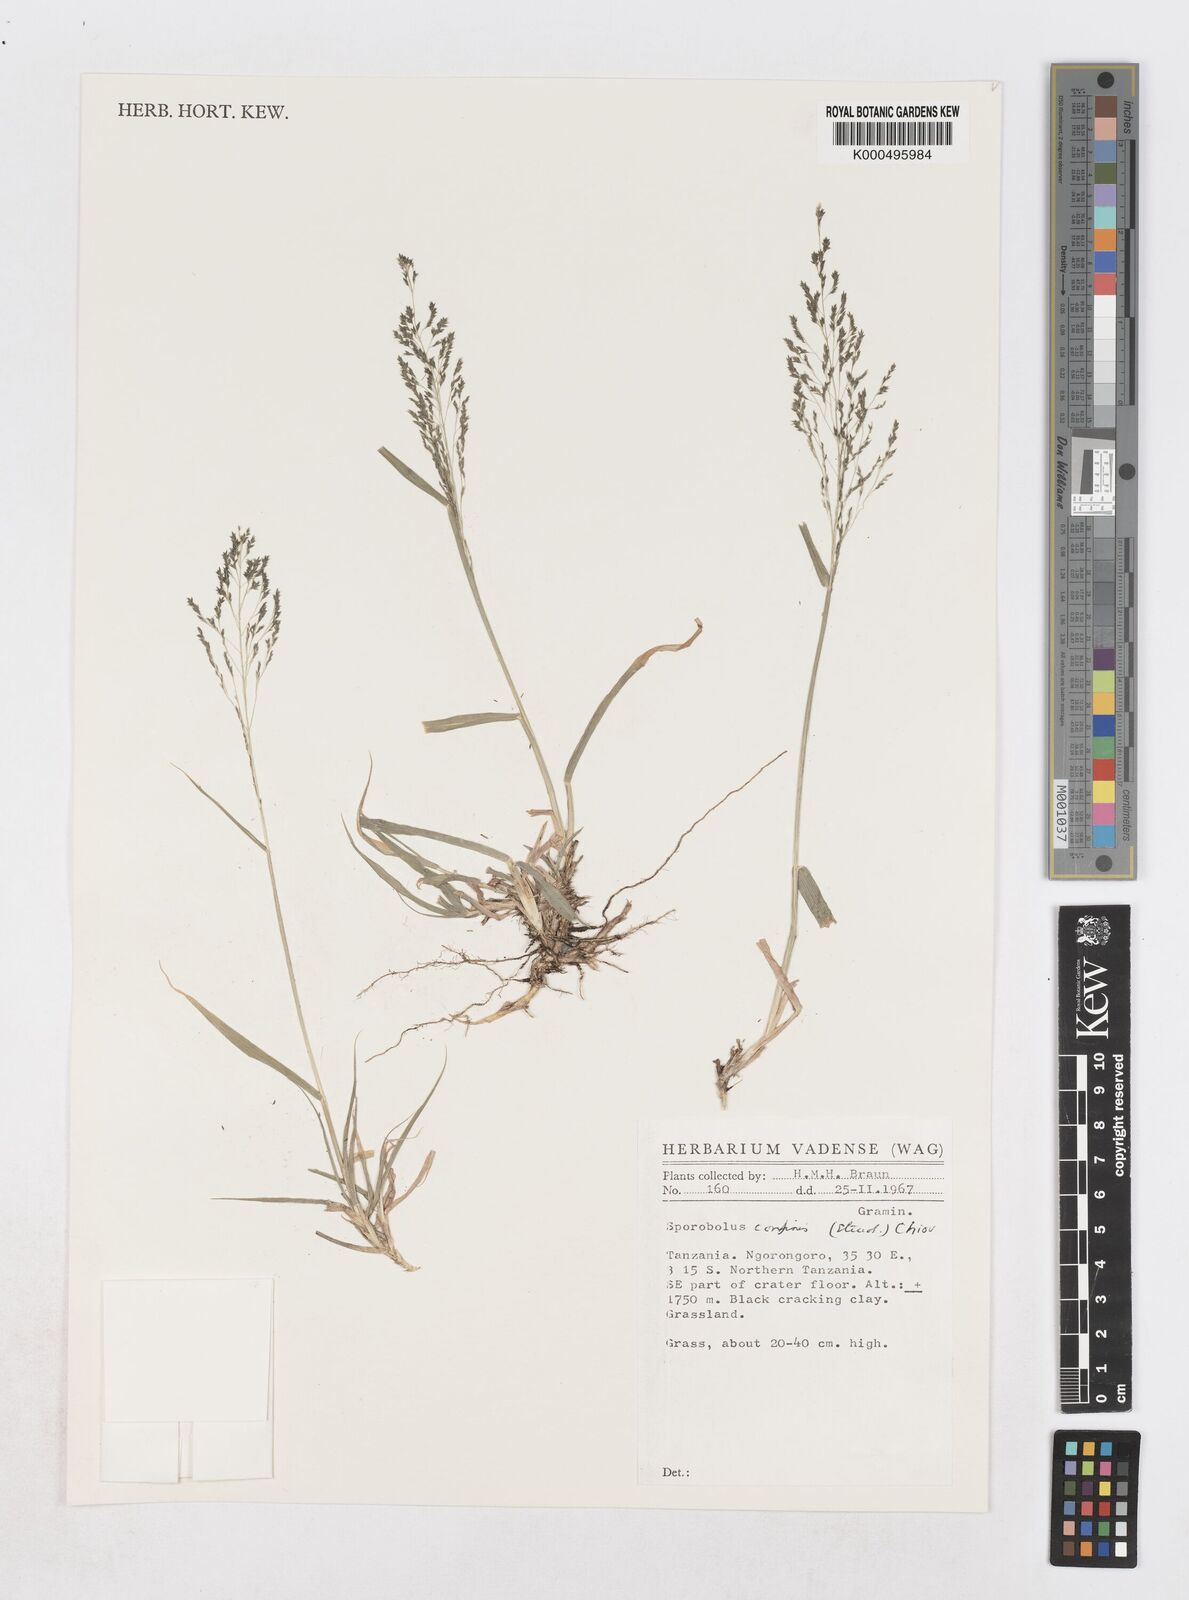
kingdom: Plantae
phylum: Tracheophyta
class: Liliopsida
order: Poales
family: Poaceae
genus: Sporobolus
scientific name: Sporobolus confinis
